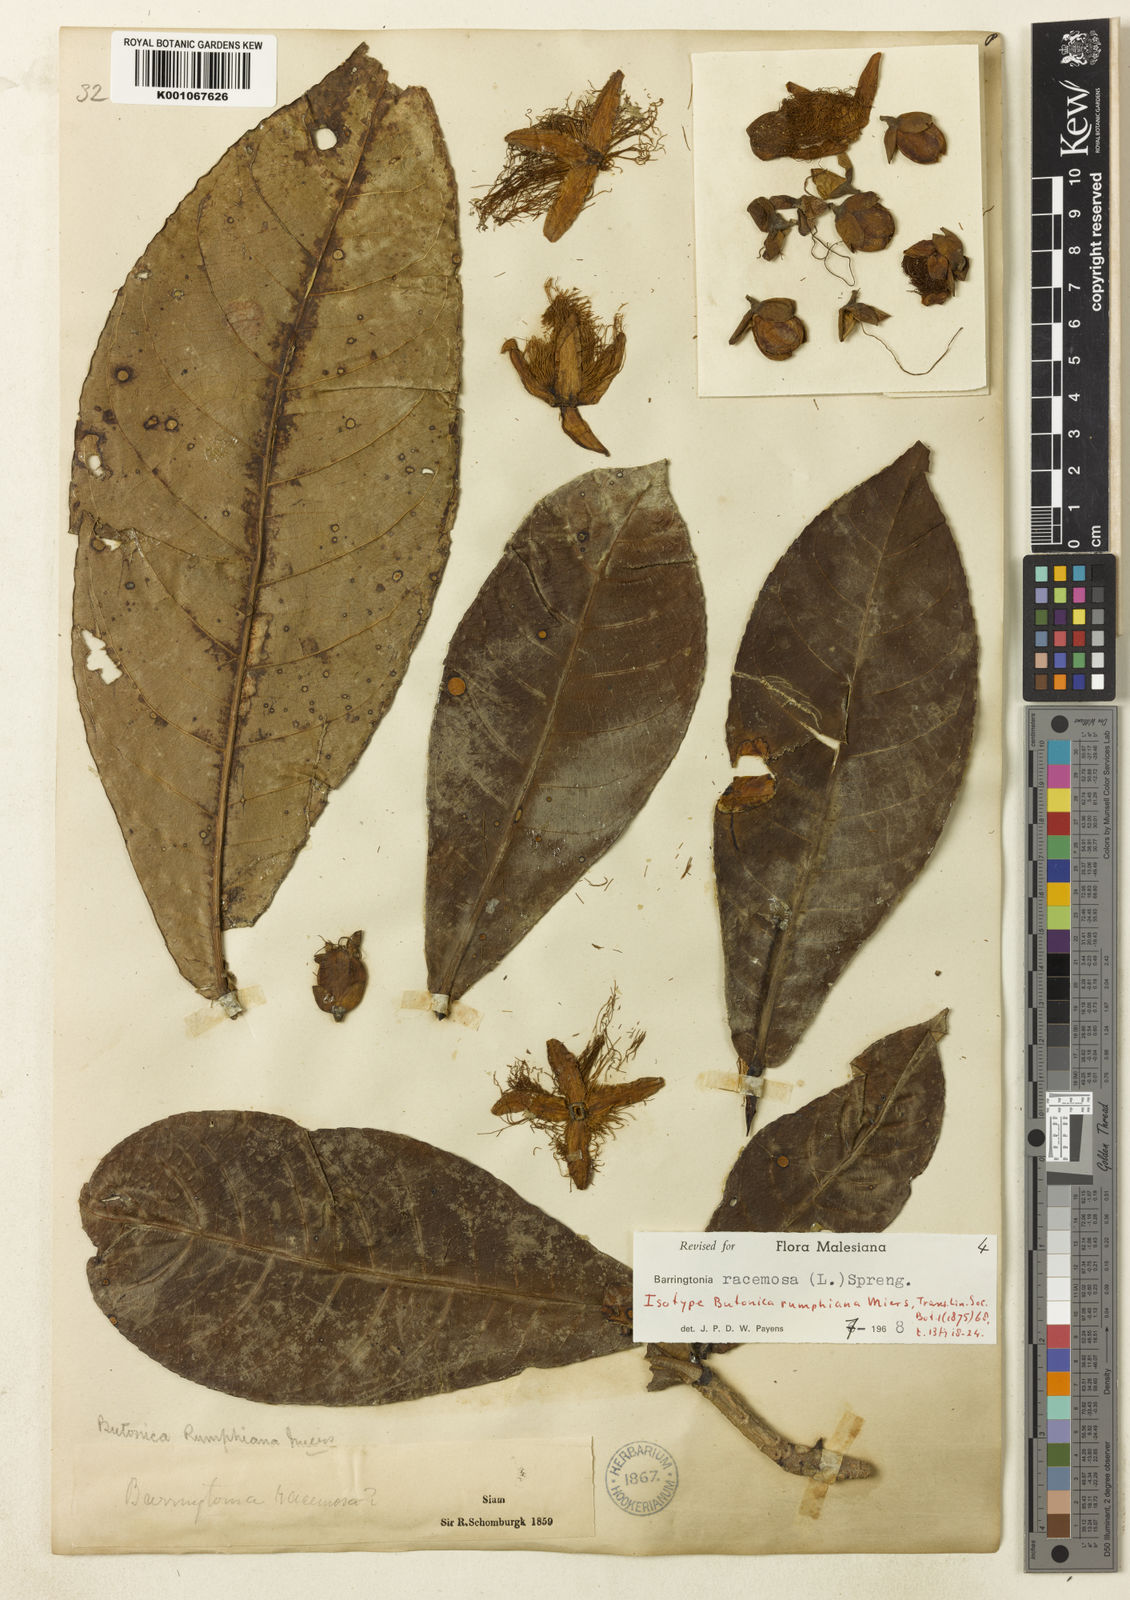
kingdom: Plantae
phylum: Tracheophyta
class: Magnoliopsida
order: Ericales
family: Lecythidaceae
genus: Barringtonia
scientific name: Barringtonia racemosa
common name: Brackwater mangrove
